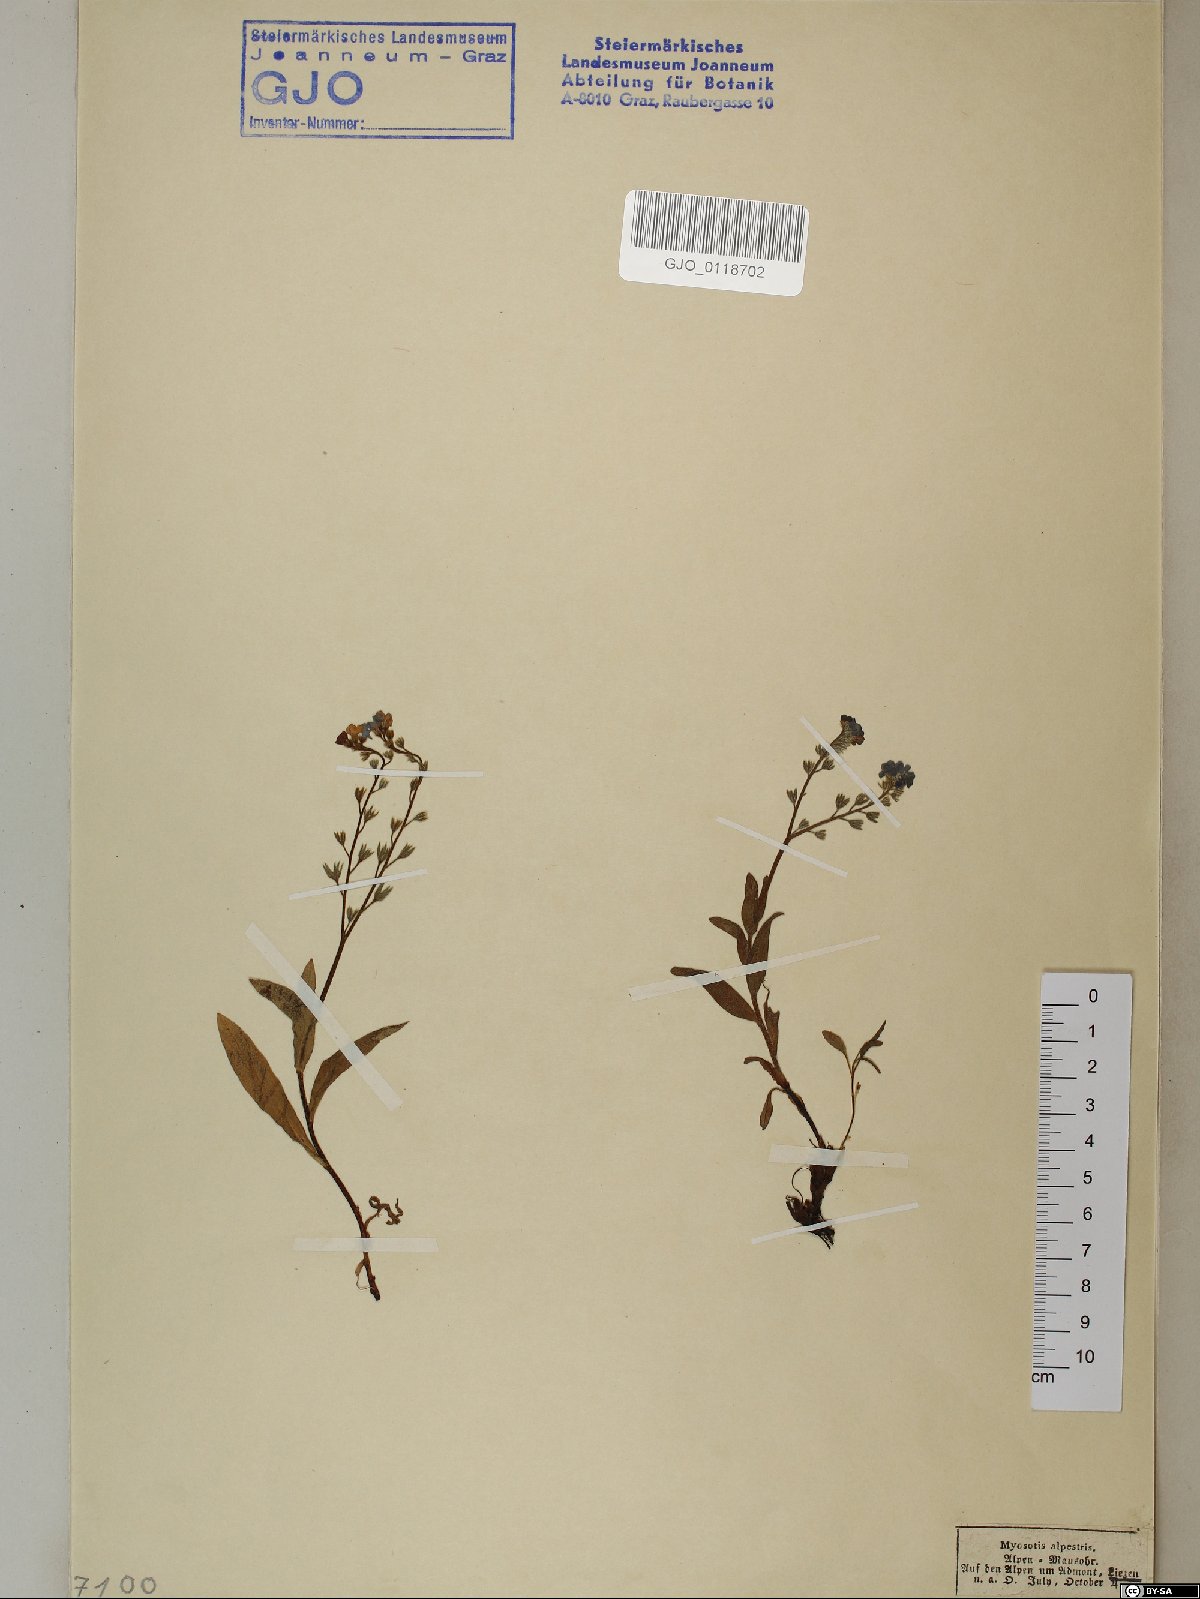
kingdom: Plantae
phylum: Tracheophyta
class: Magnoliopsida
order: Boraginales
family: Boraginaceae
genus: Myosotis
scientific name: Myosotis alpestris
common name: Alpine forget-me-not
